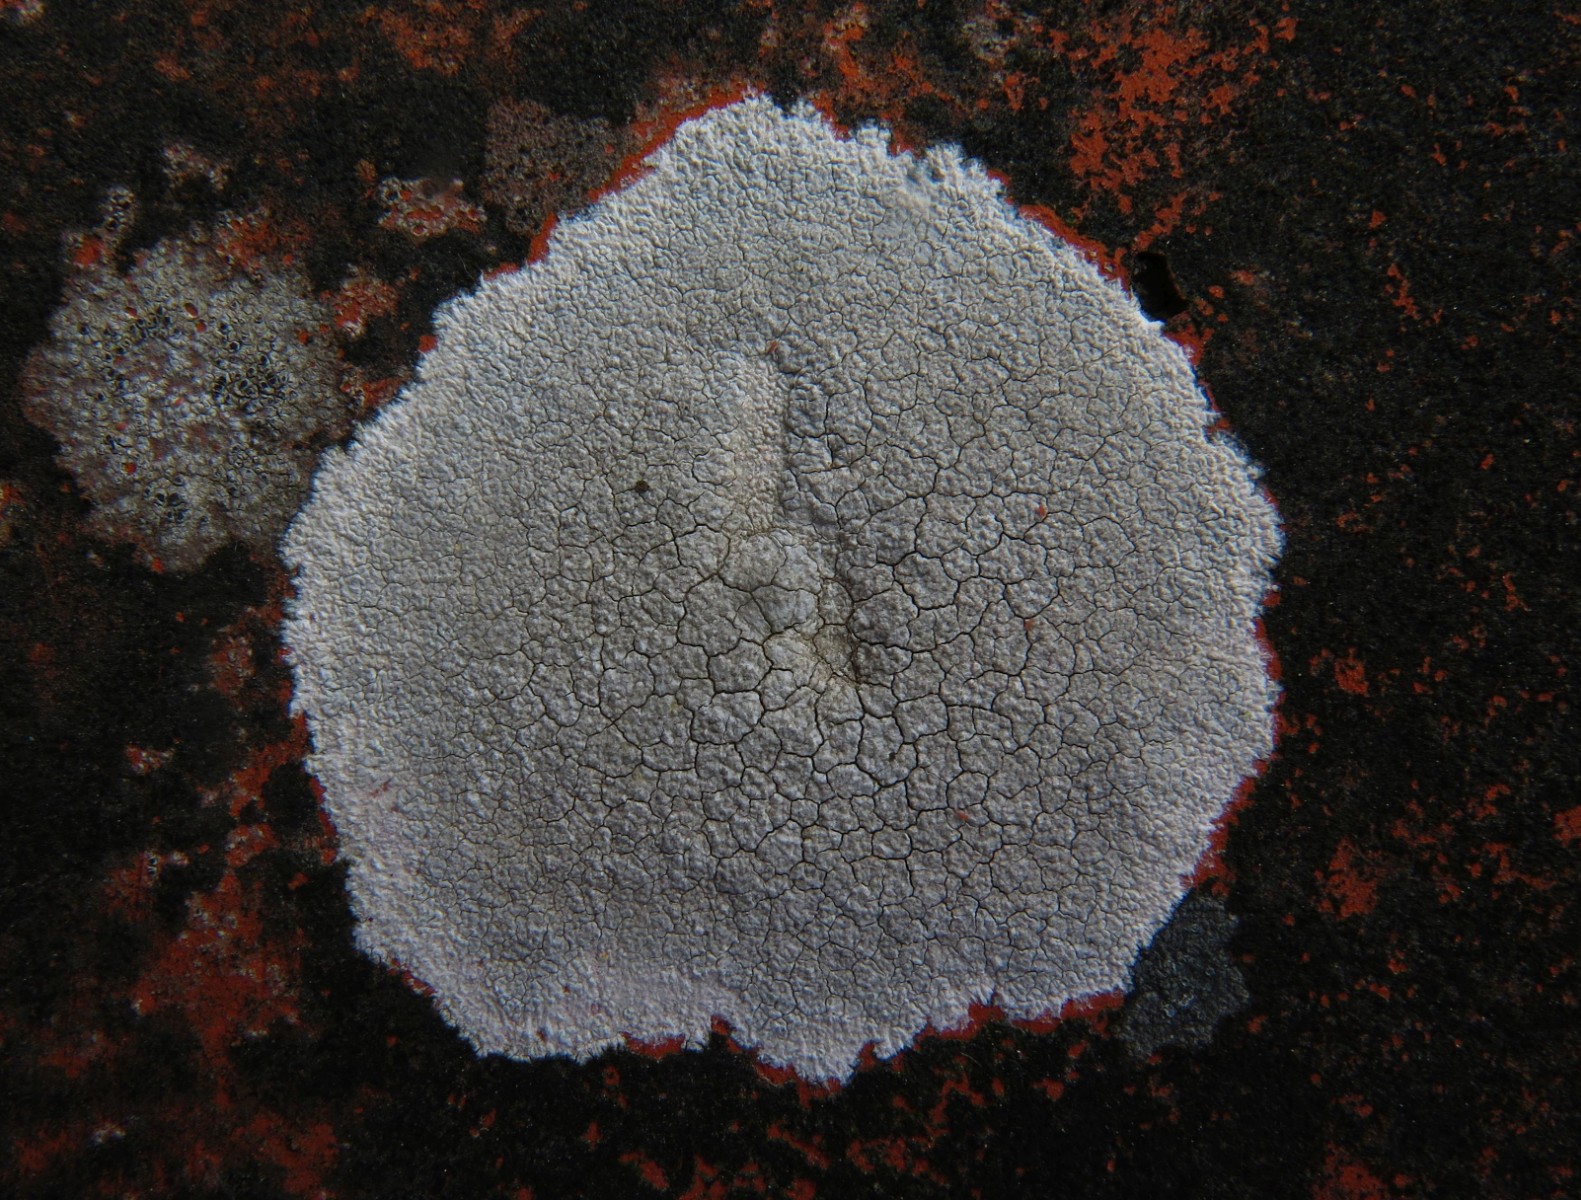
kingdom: Fungi
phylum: Ascomycota
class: Lecanoromycetes
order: Lecanorales
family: Lecanoraceae
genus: Glaucomaria
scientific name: Glaucomaria rupicola
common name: stengærde-kantskivelav
